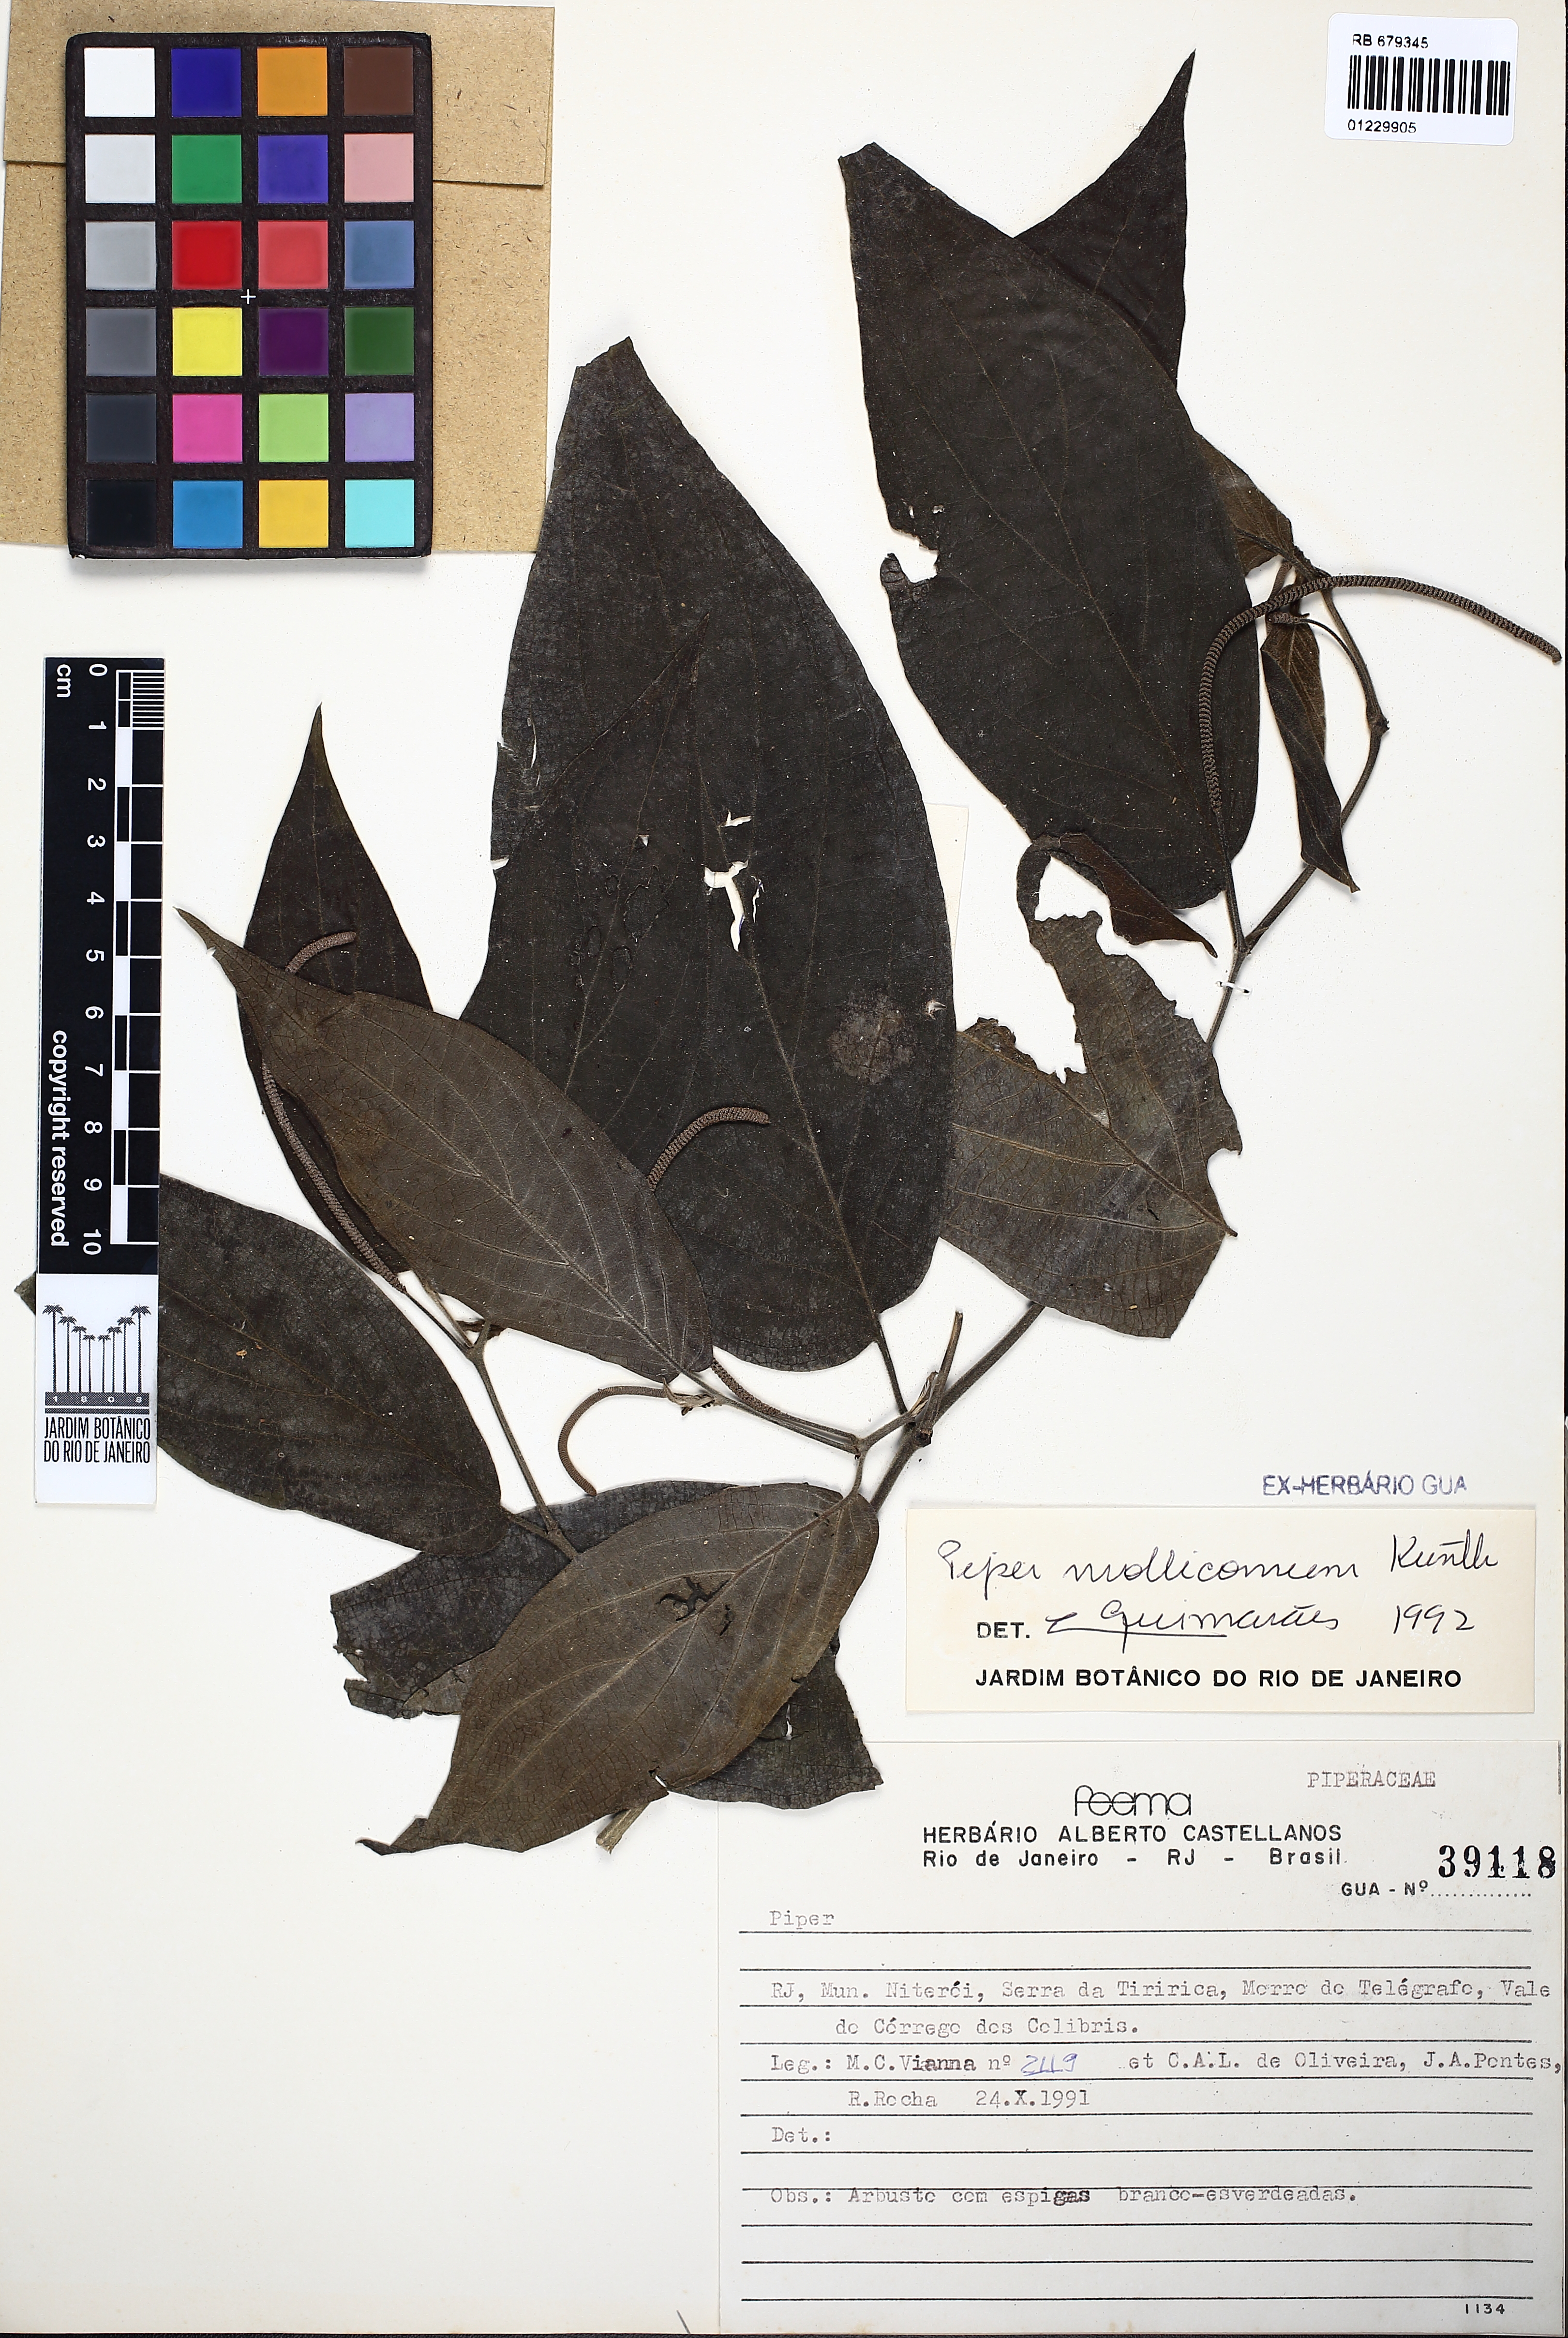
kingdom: Plantae
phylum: Tracheophyta
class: Magnoliopsida
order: Piperales
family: Piperaceae
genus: Piper
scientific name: Piper mollicomum
